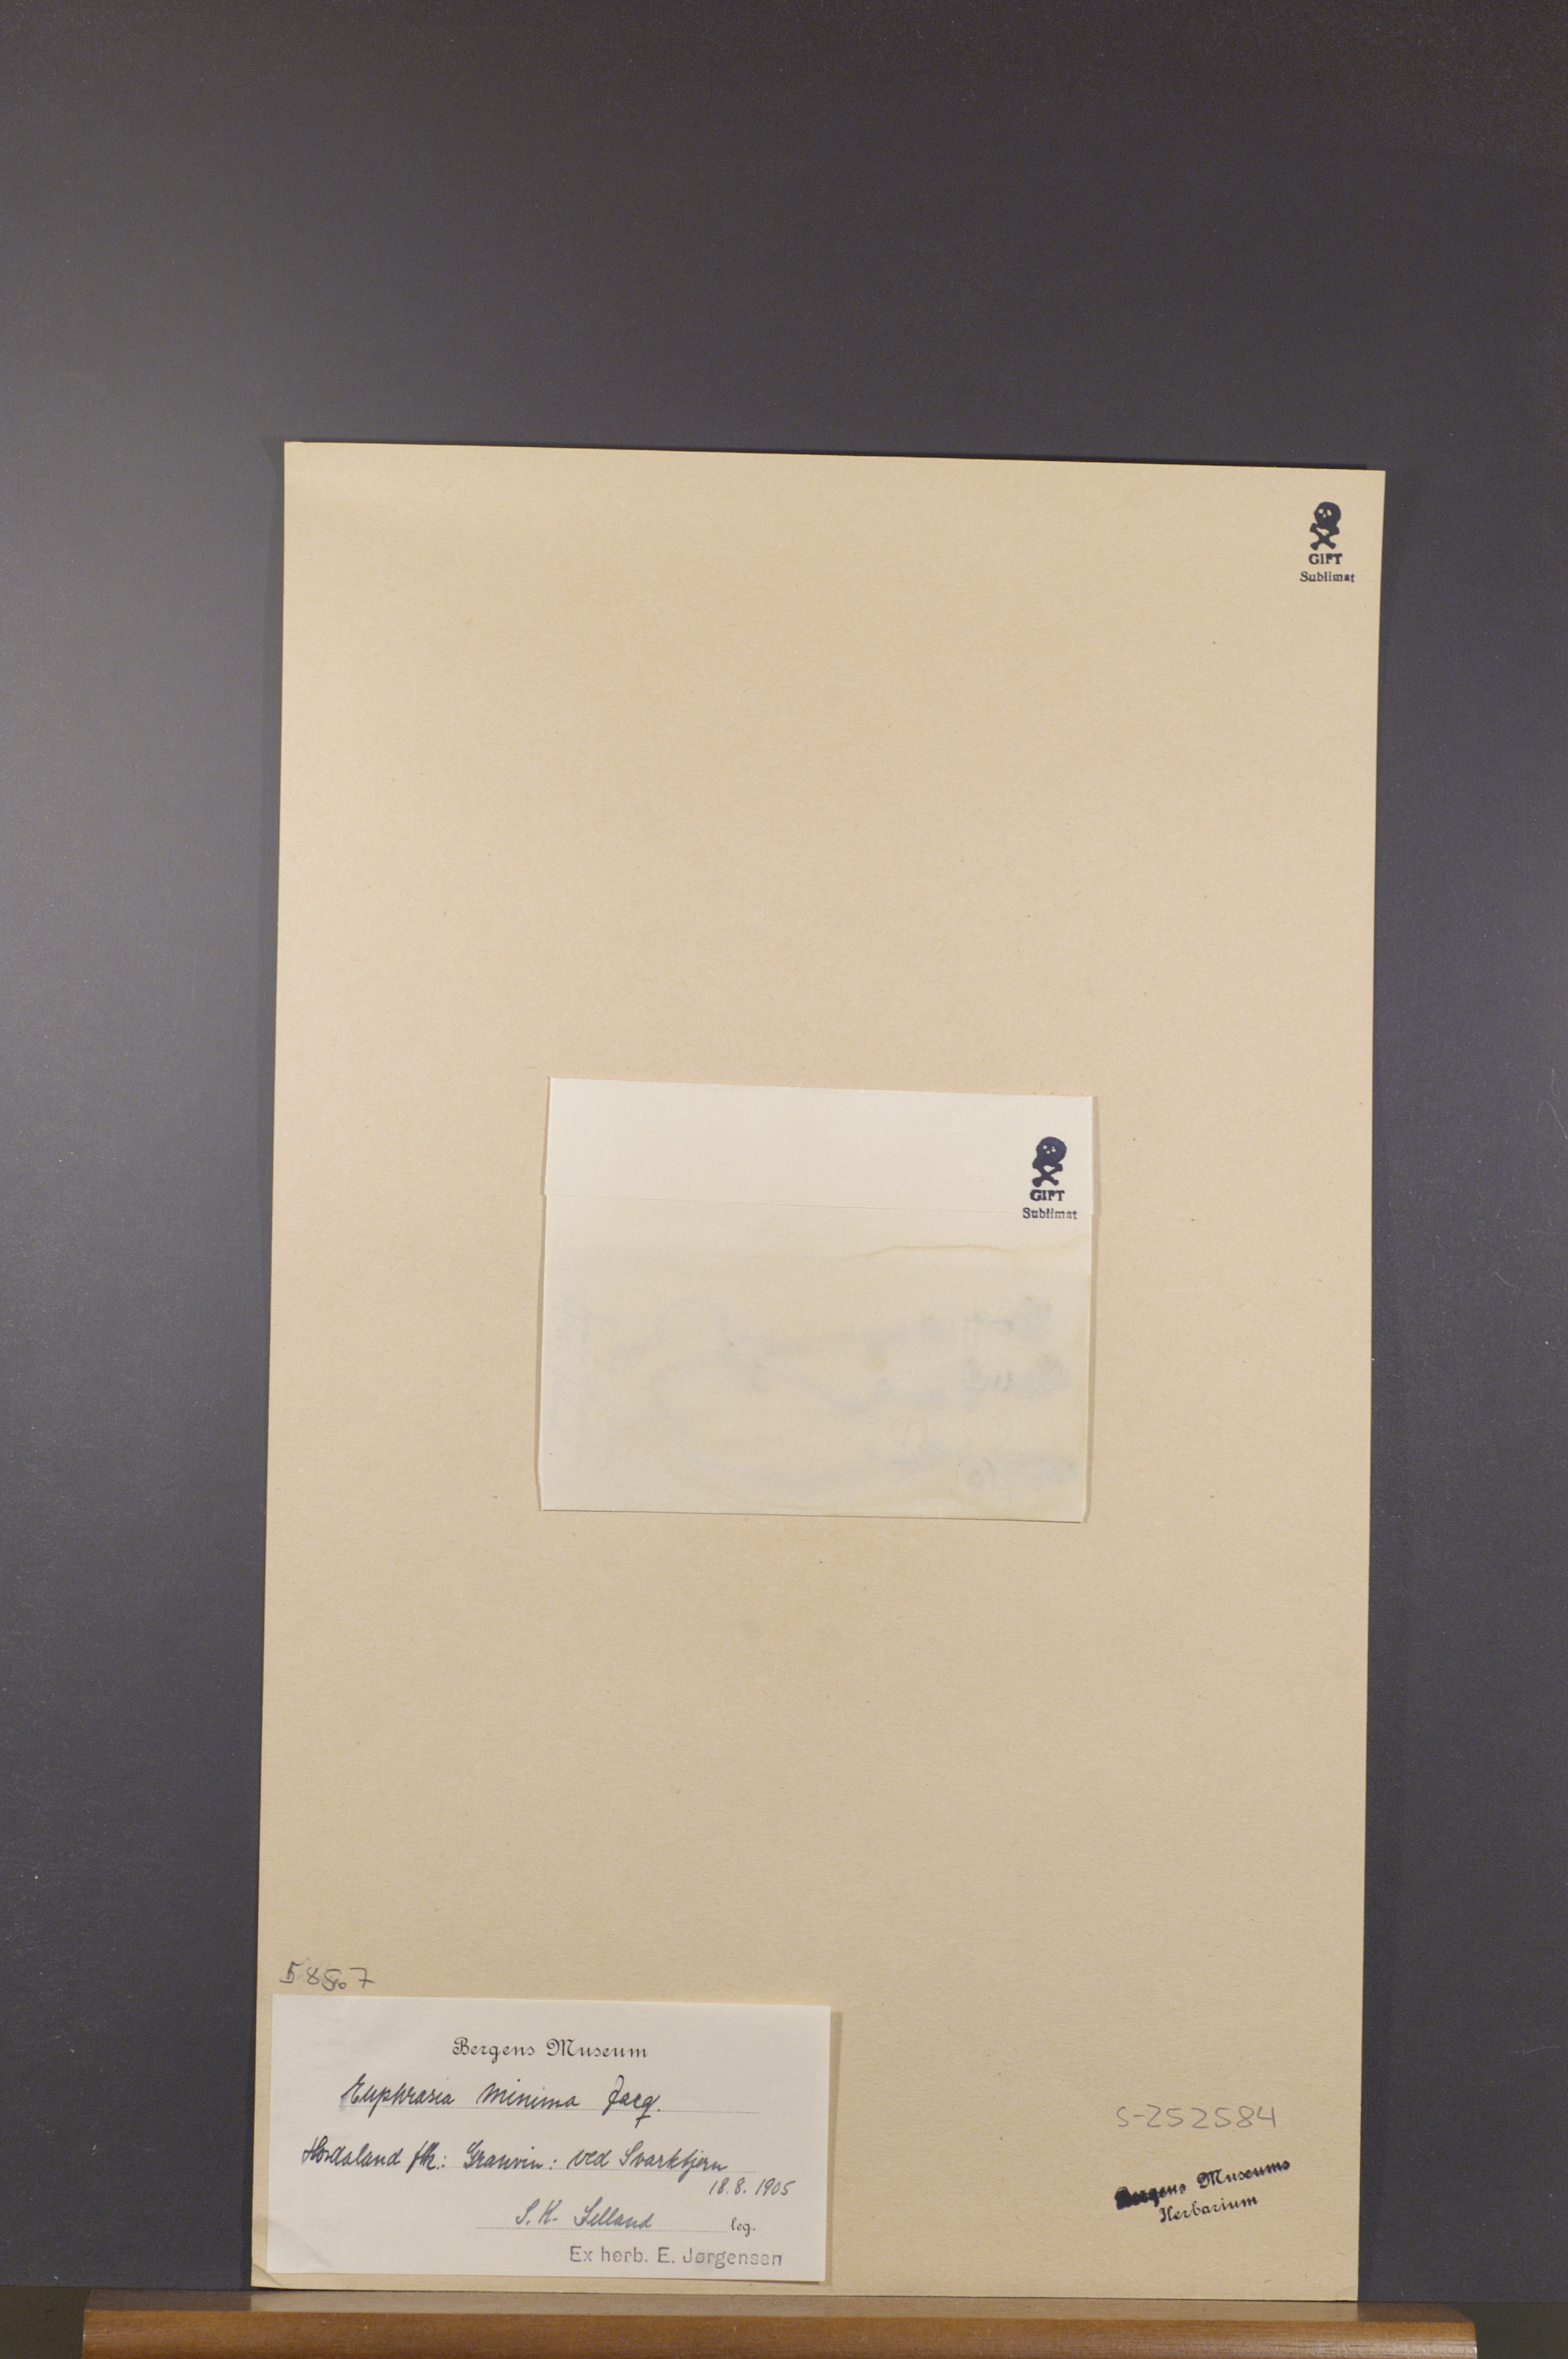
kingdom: Plantae
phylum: Tracheophyta
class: Magnoliopsida
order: Lamiales
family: Orobanchaceae
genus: Euphrasia
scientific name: Euphrasia minima
